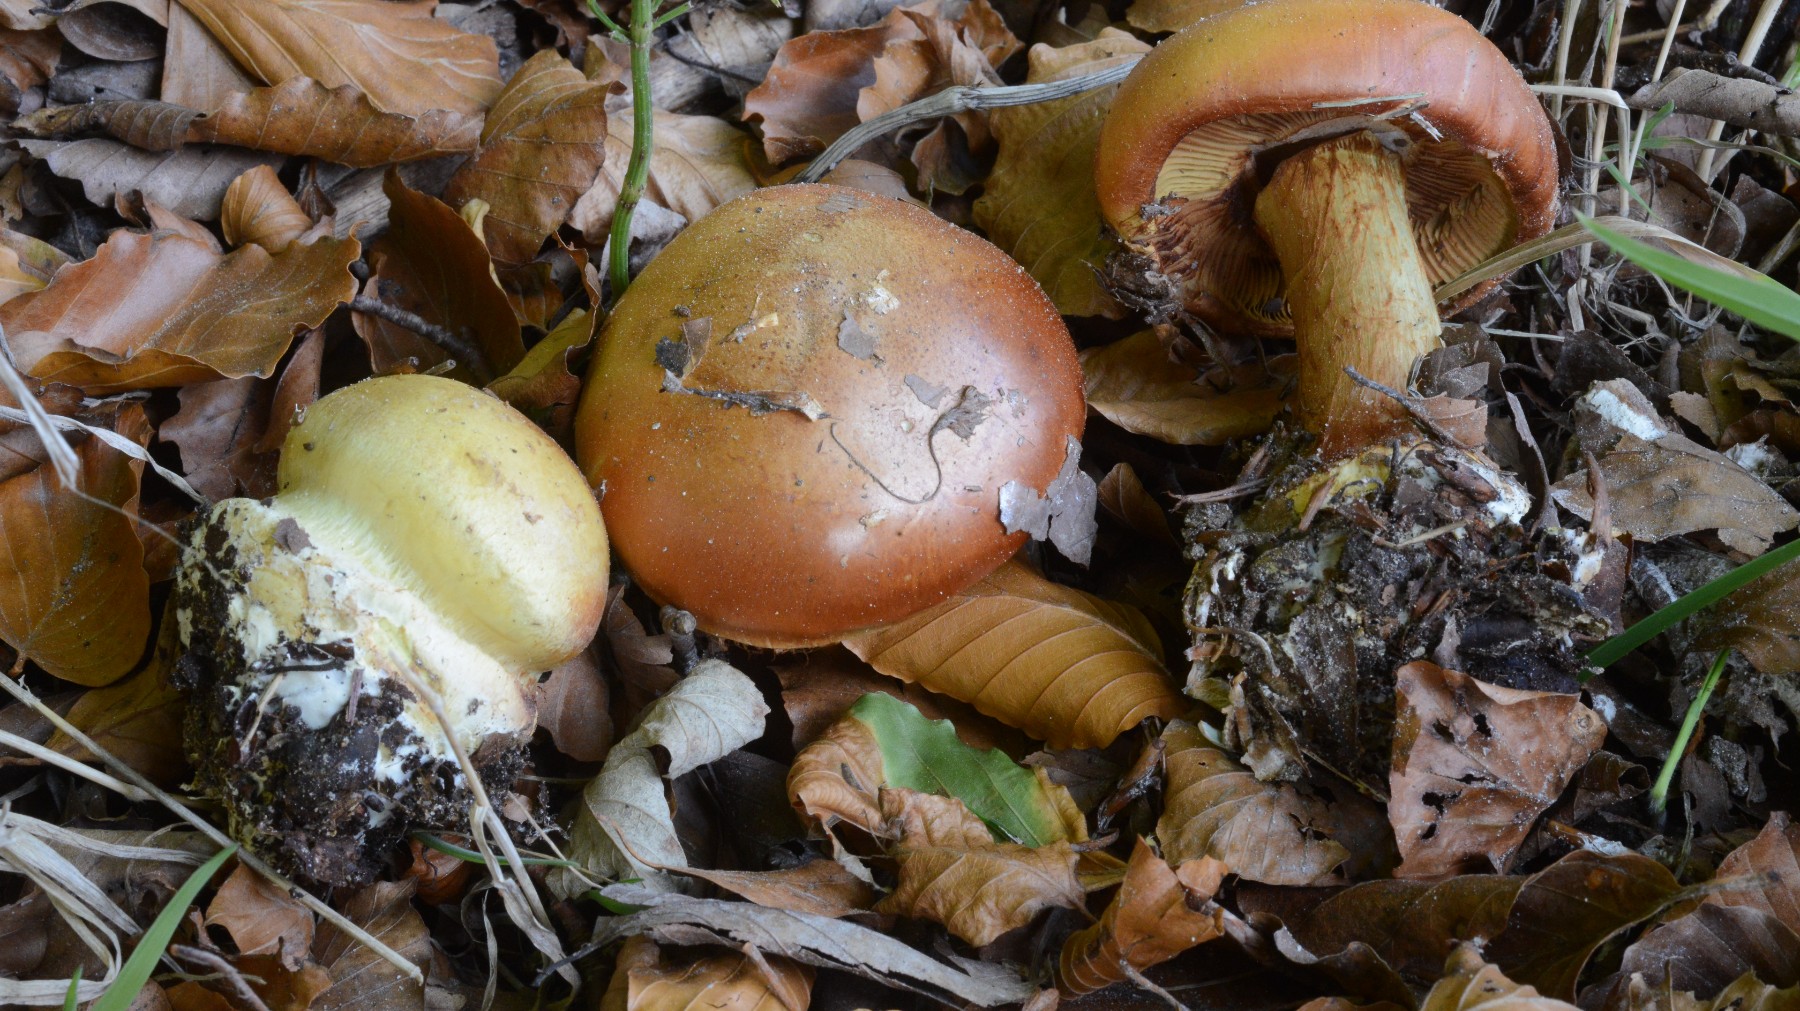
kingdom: Fungi
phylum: Basidiomycota
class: Agaricomycetes
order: Agaricales
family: Cortinariaceae
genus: Calonarius
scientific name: Calonarius elegantissimus
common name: orangegylden slørhat
